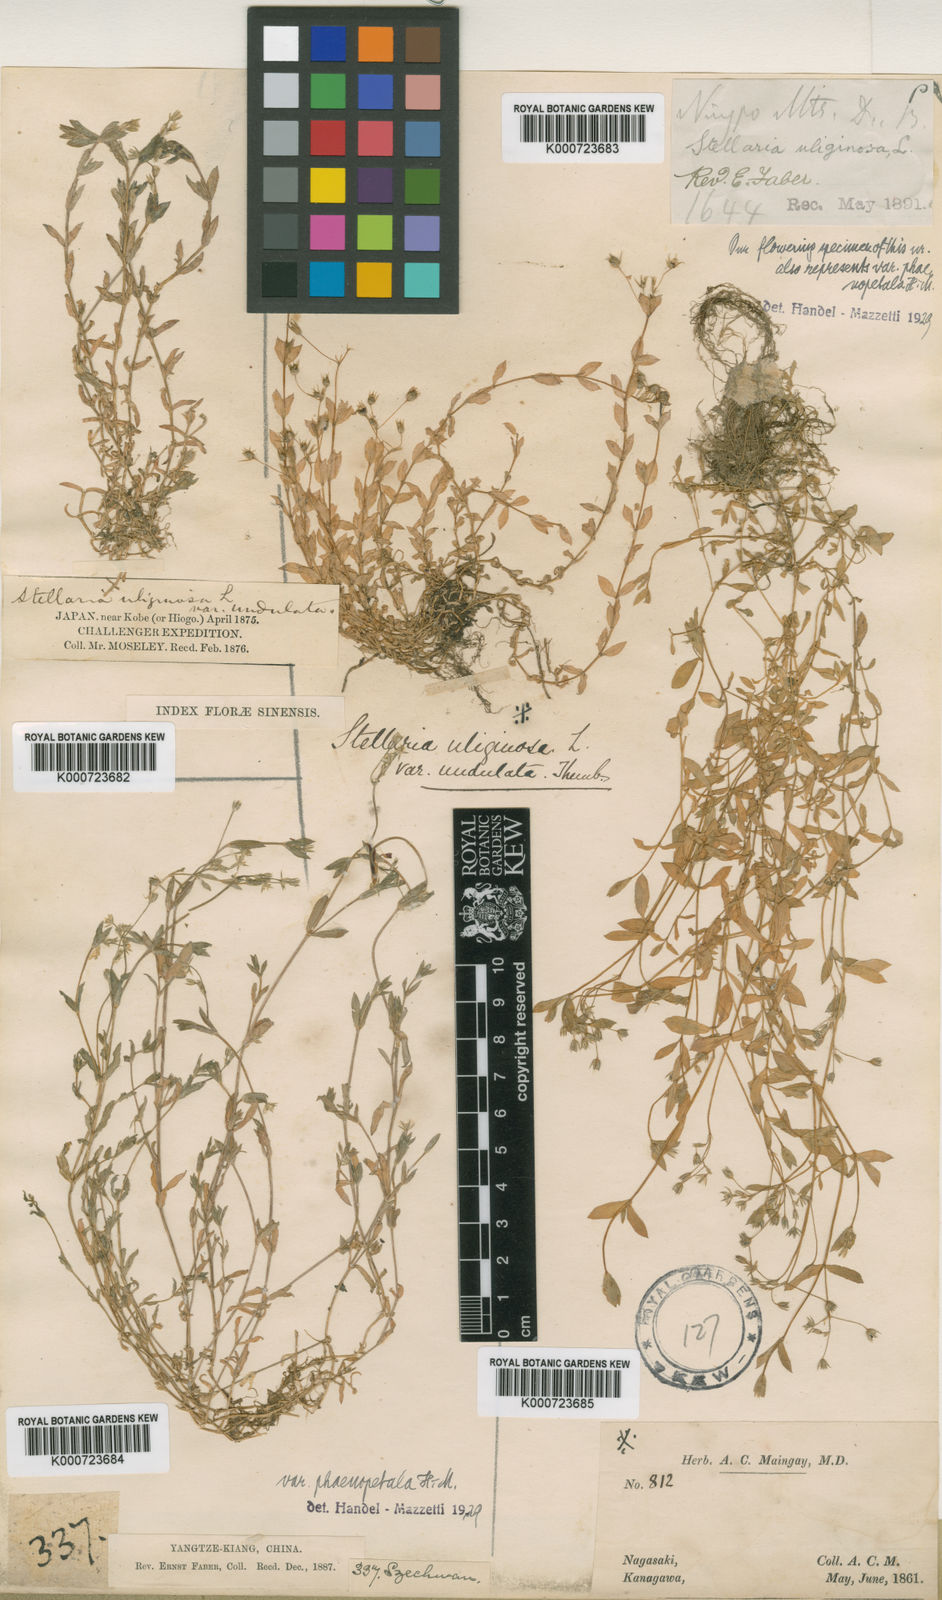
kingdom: Plantae
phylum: Tracheophyta
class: Magnoliopsida
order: Caryophyllales
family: Caryophyllaceae
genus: Stellaria
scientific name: Stellaria alsine
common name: Bog stitchwort
